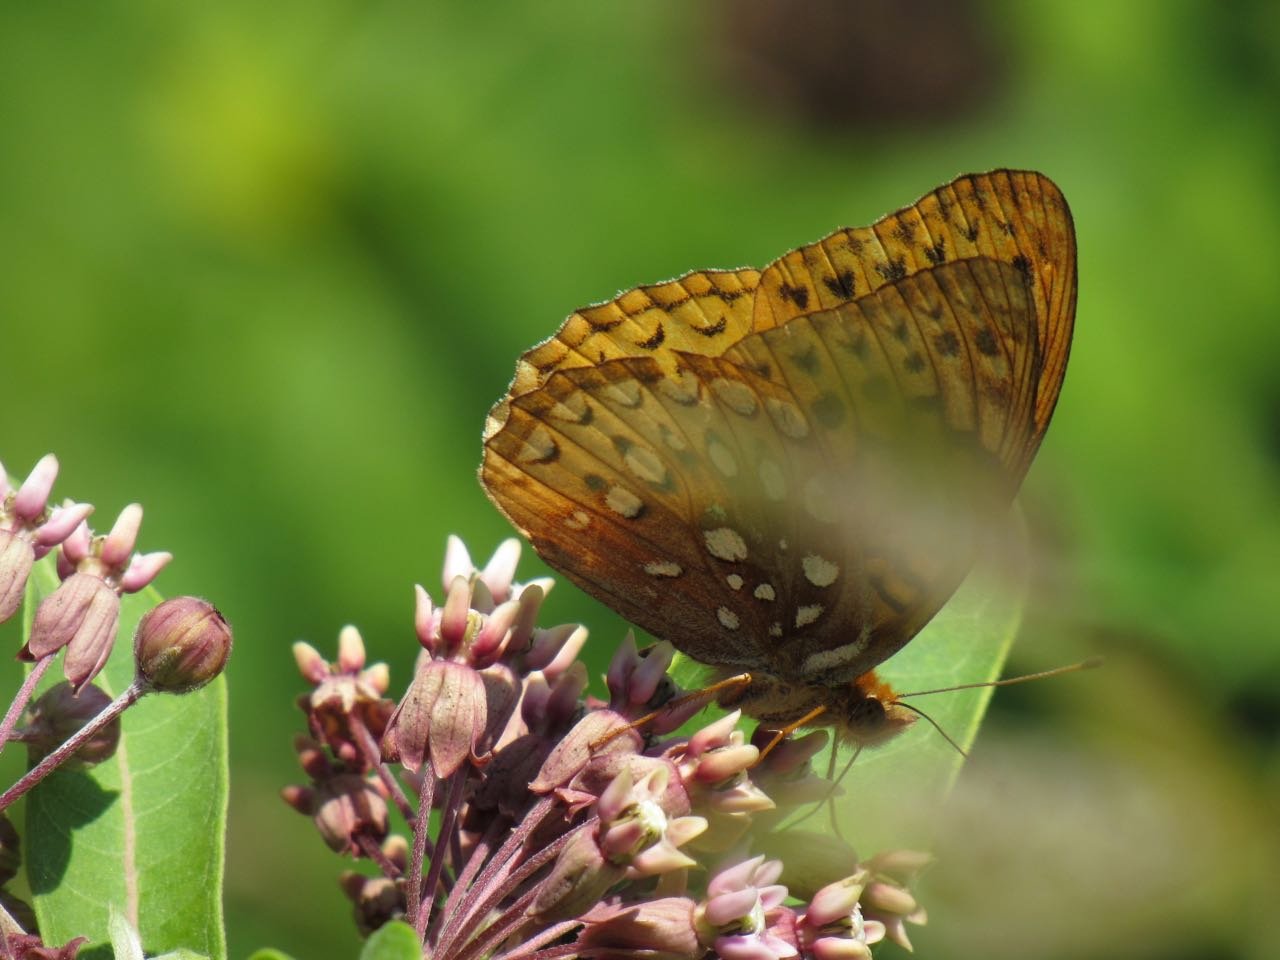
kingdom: Animalia
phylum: Arthropoda
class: Insecta
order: Lepidoptera
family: Nymphalidae
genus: Speyeria
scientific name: Speyeria cybele
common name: Great Spangled Fritillary
